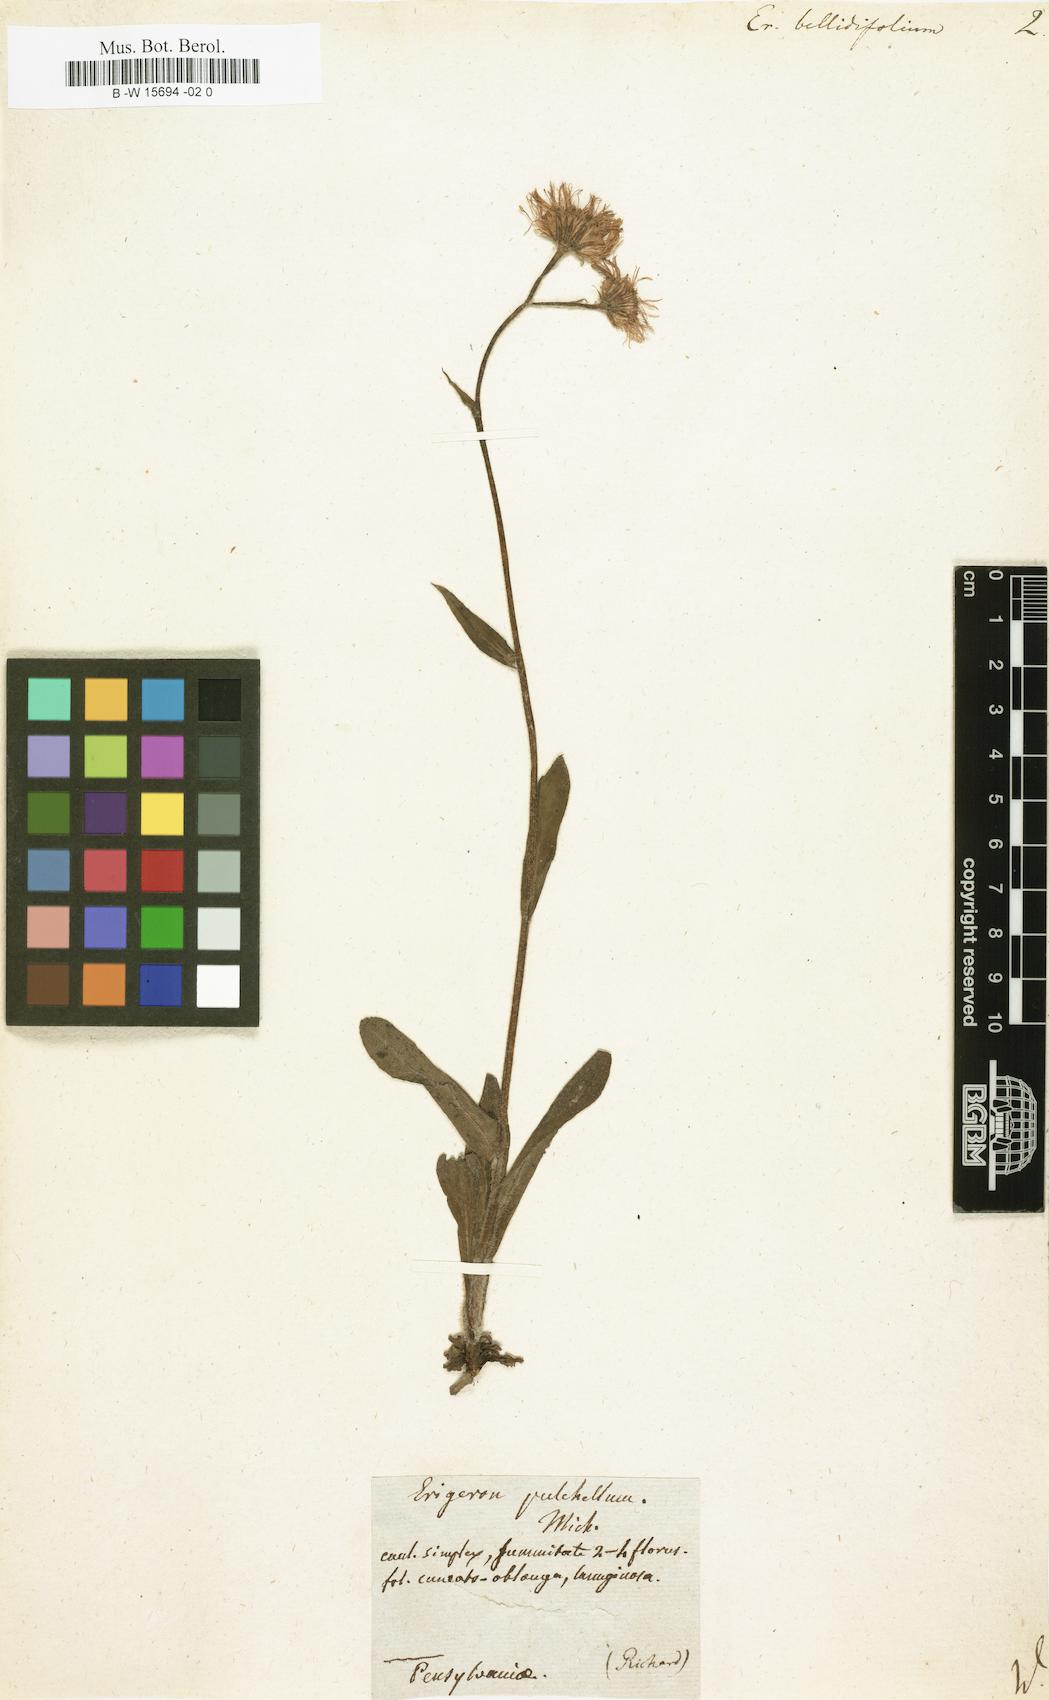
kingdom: Plantae
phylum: Tracheophyta
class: Magnoliopsida
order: Asterales
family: Asteraceae
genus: Erigeron
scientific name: Erigeron pulchellus
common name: Hairy fleabane
